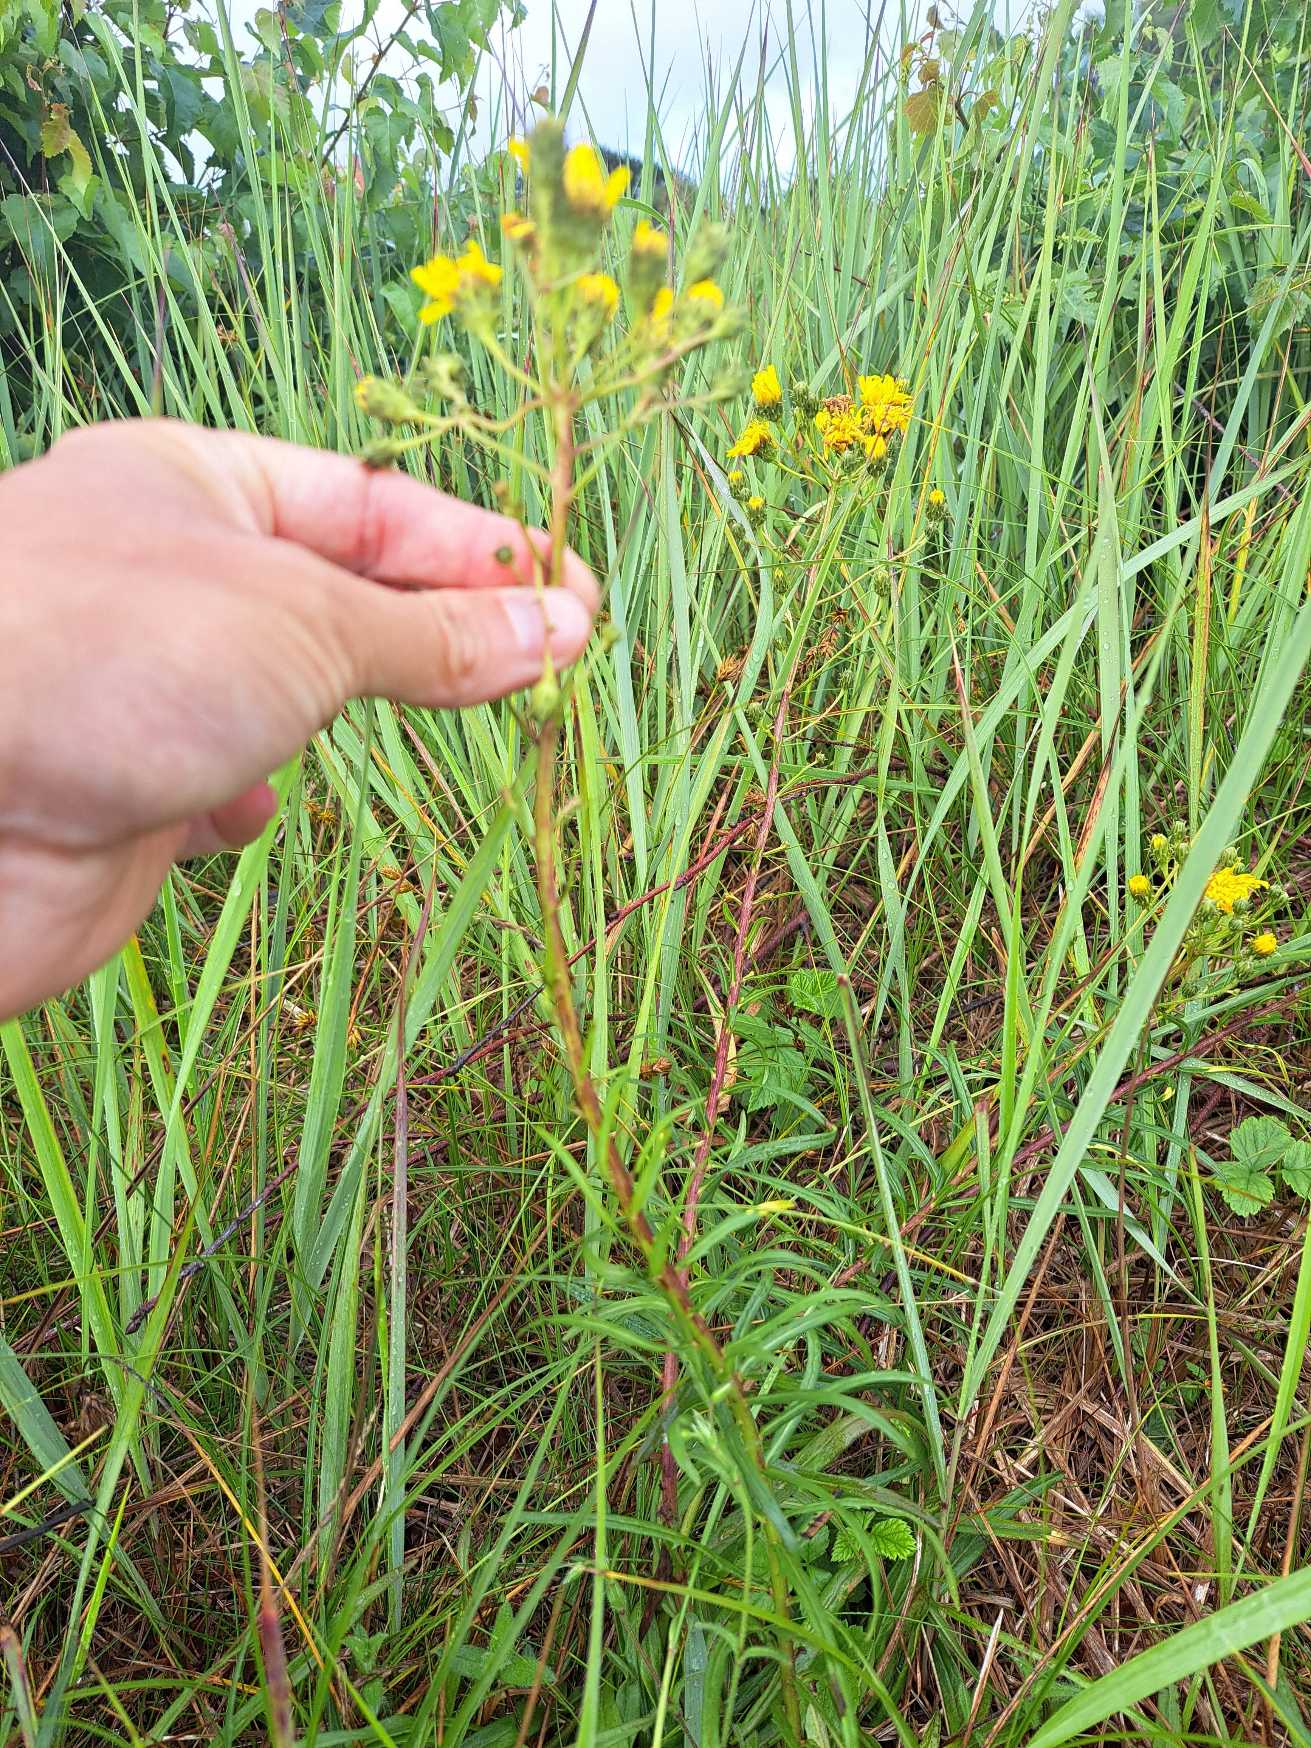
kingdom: Plantae
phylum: Tracheophyta
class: Magnoliopsida
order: Asterales
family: Asteraceae
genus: Hieracium
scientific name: Hieracium umbellatum
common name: Smalbladet høgeurt
